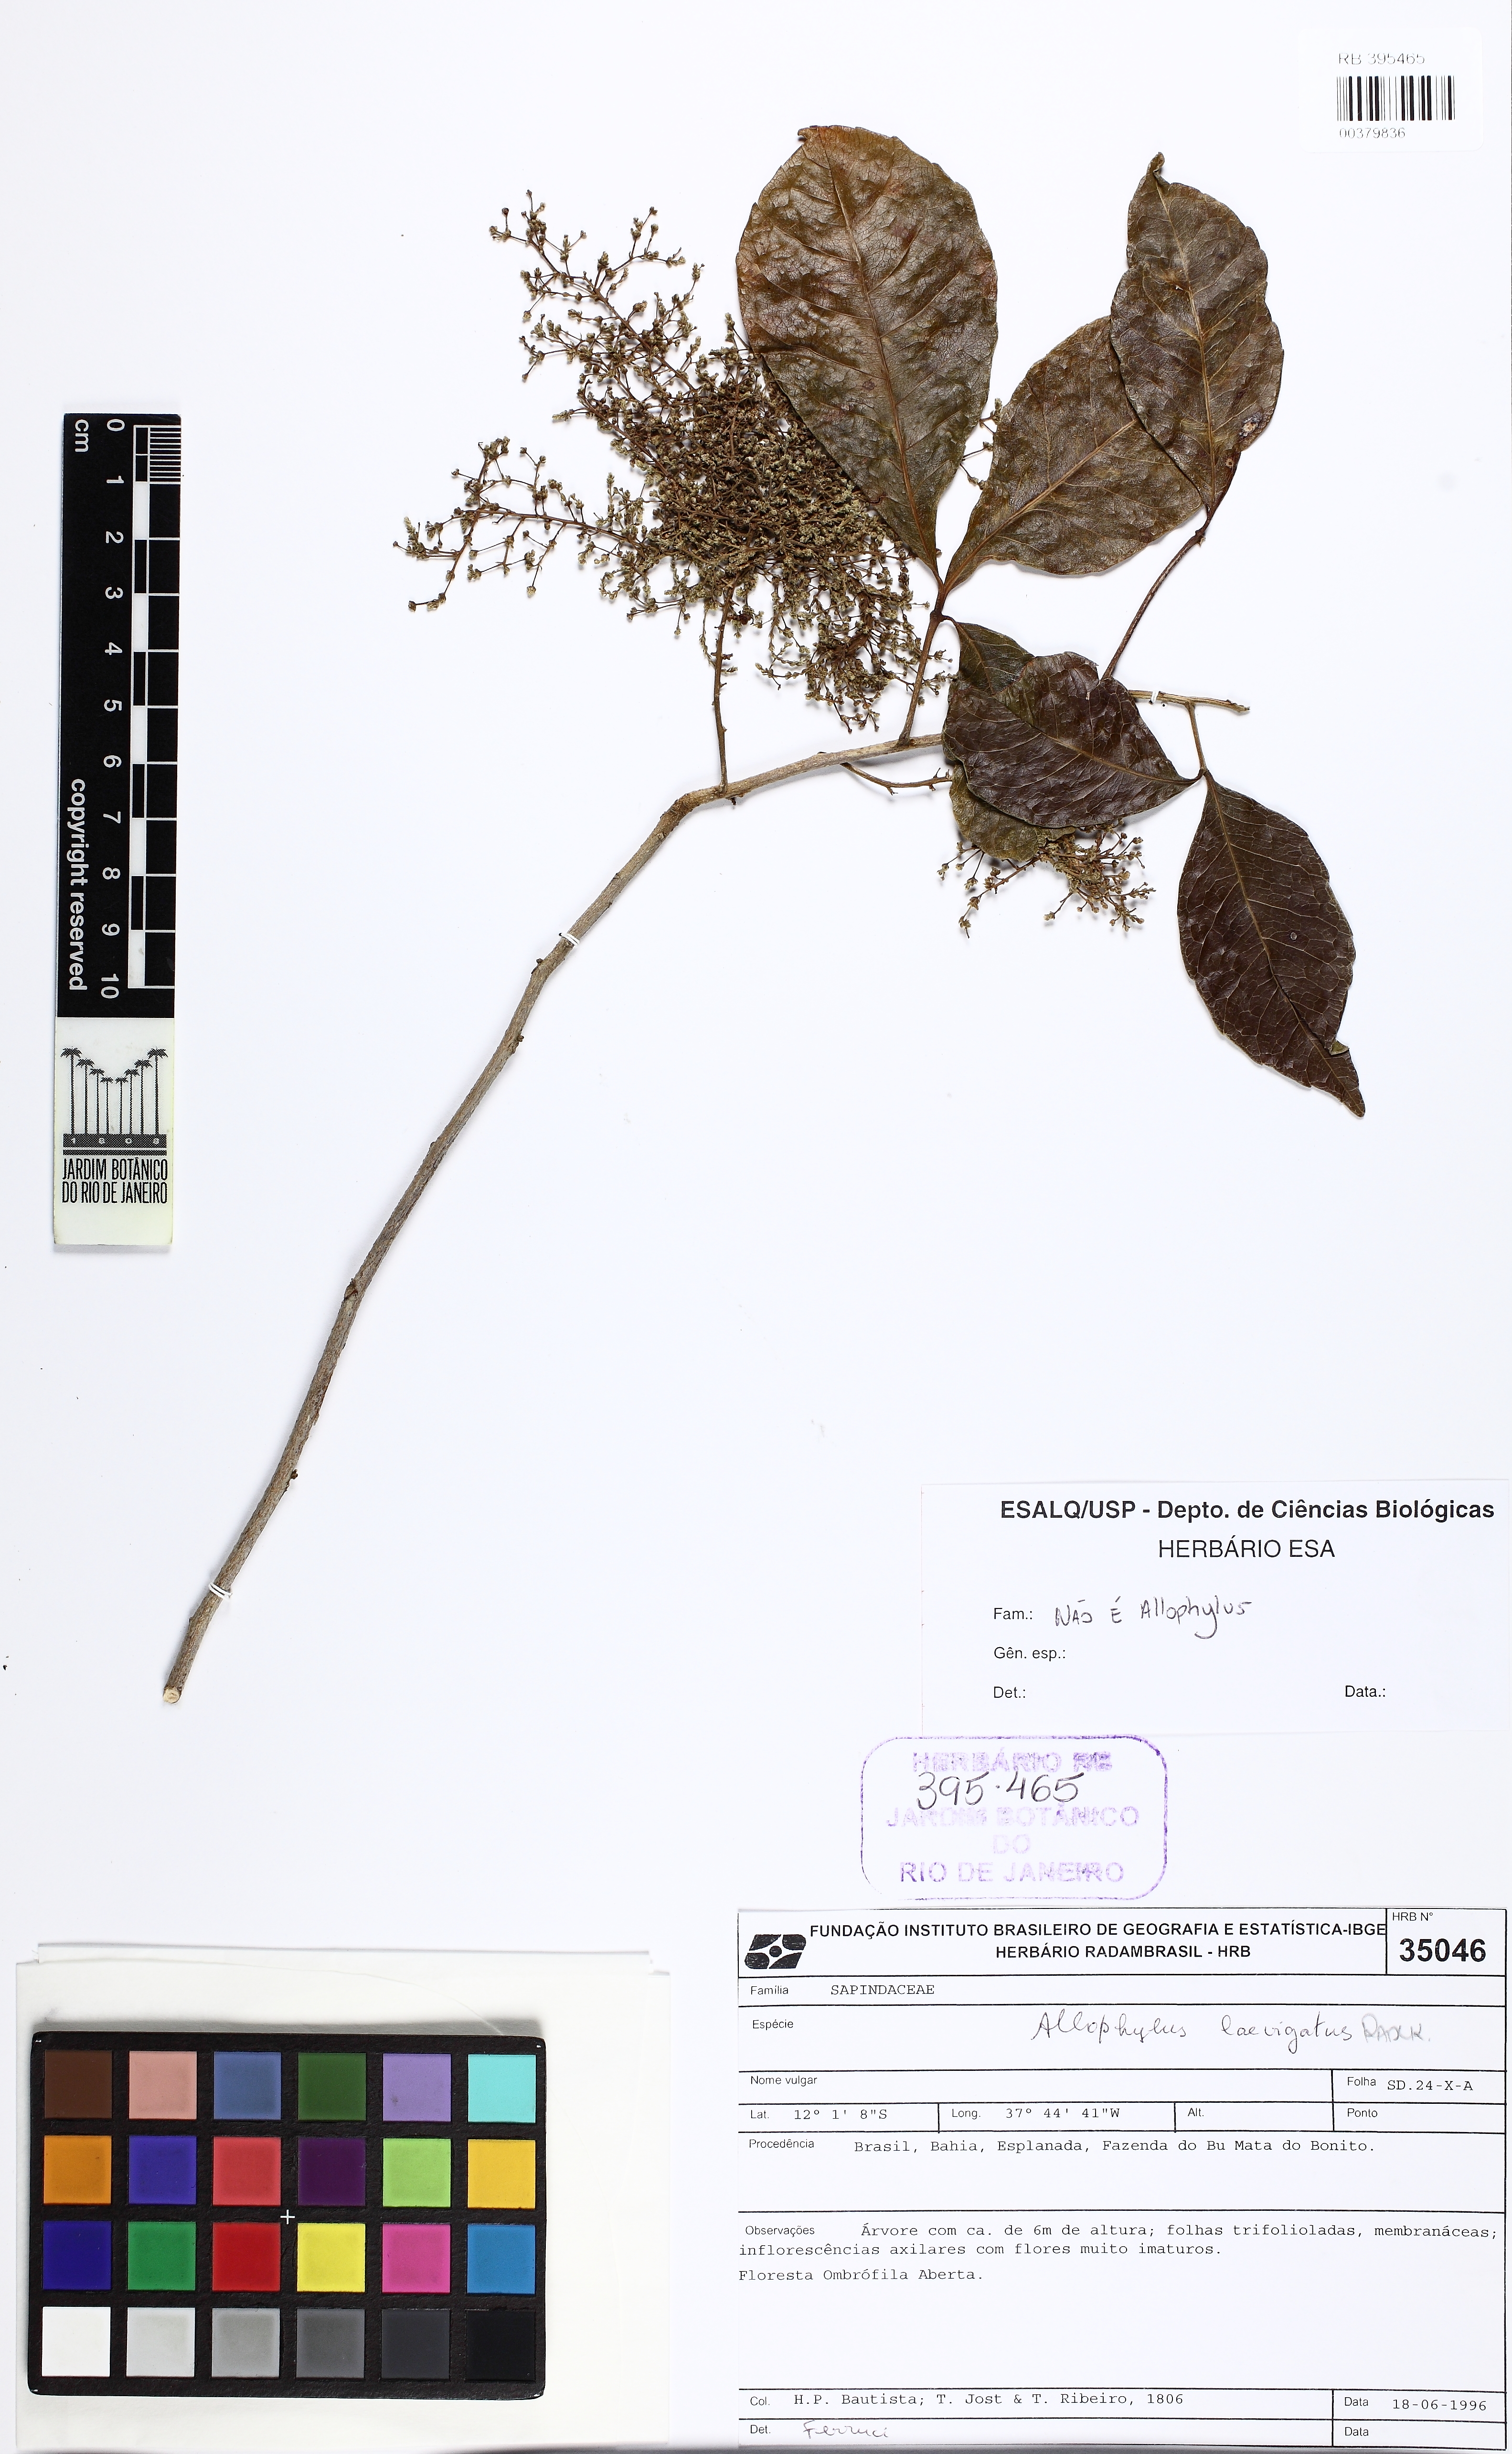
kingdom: Plantae
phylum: Tracheophyta
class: Magnoliopsida
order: Sapindales
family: Sapindaceae
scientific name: Sapindaceae
